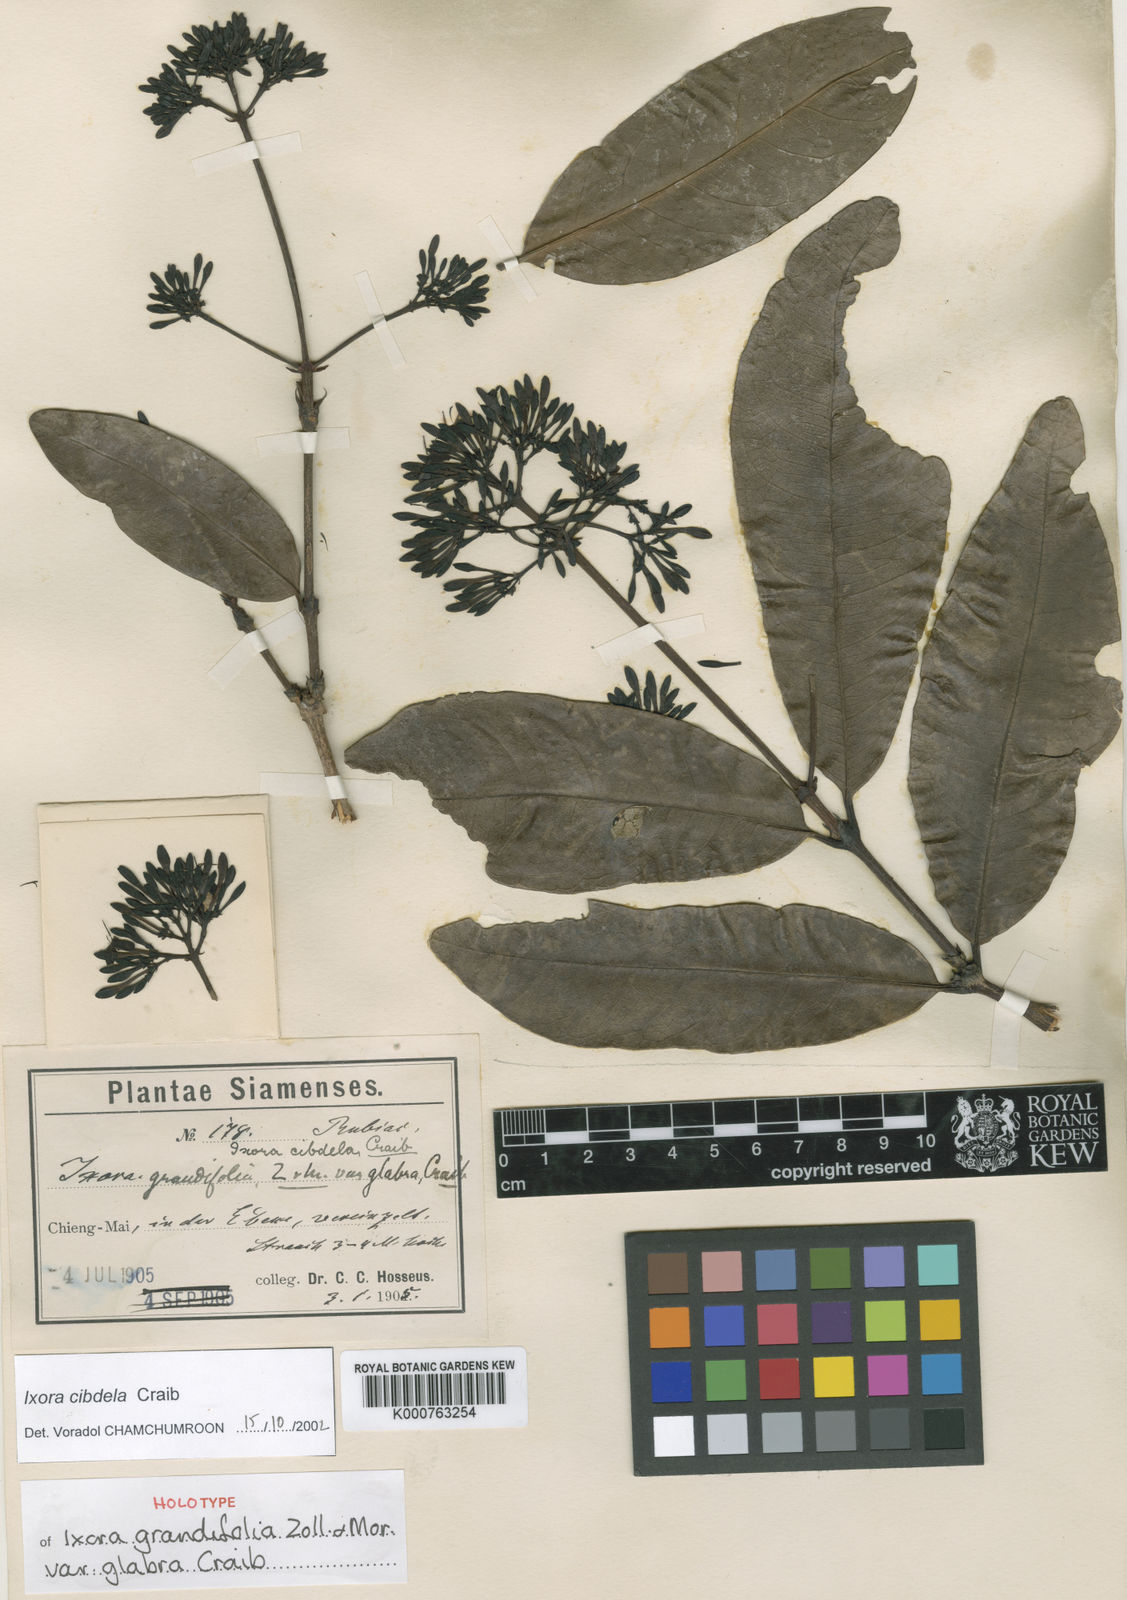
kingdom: Plantae
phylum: Tracheophyta
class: Magnoliopsida
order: Gentianales
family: Rubiaceae
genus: Ixora
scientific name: Ixora cibdela
